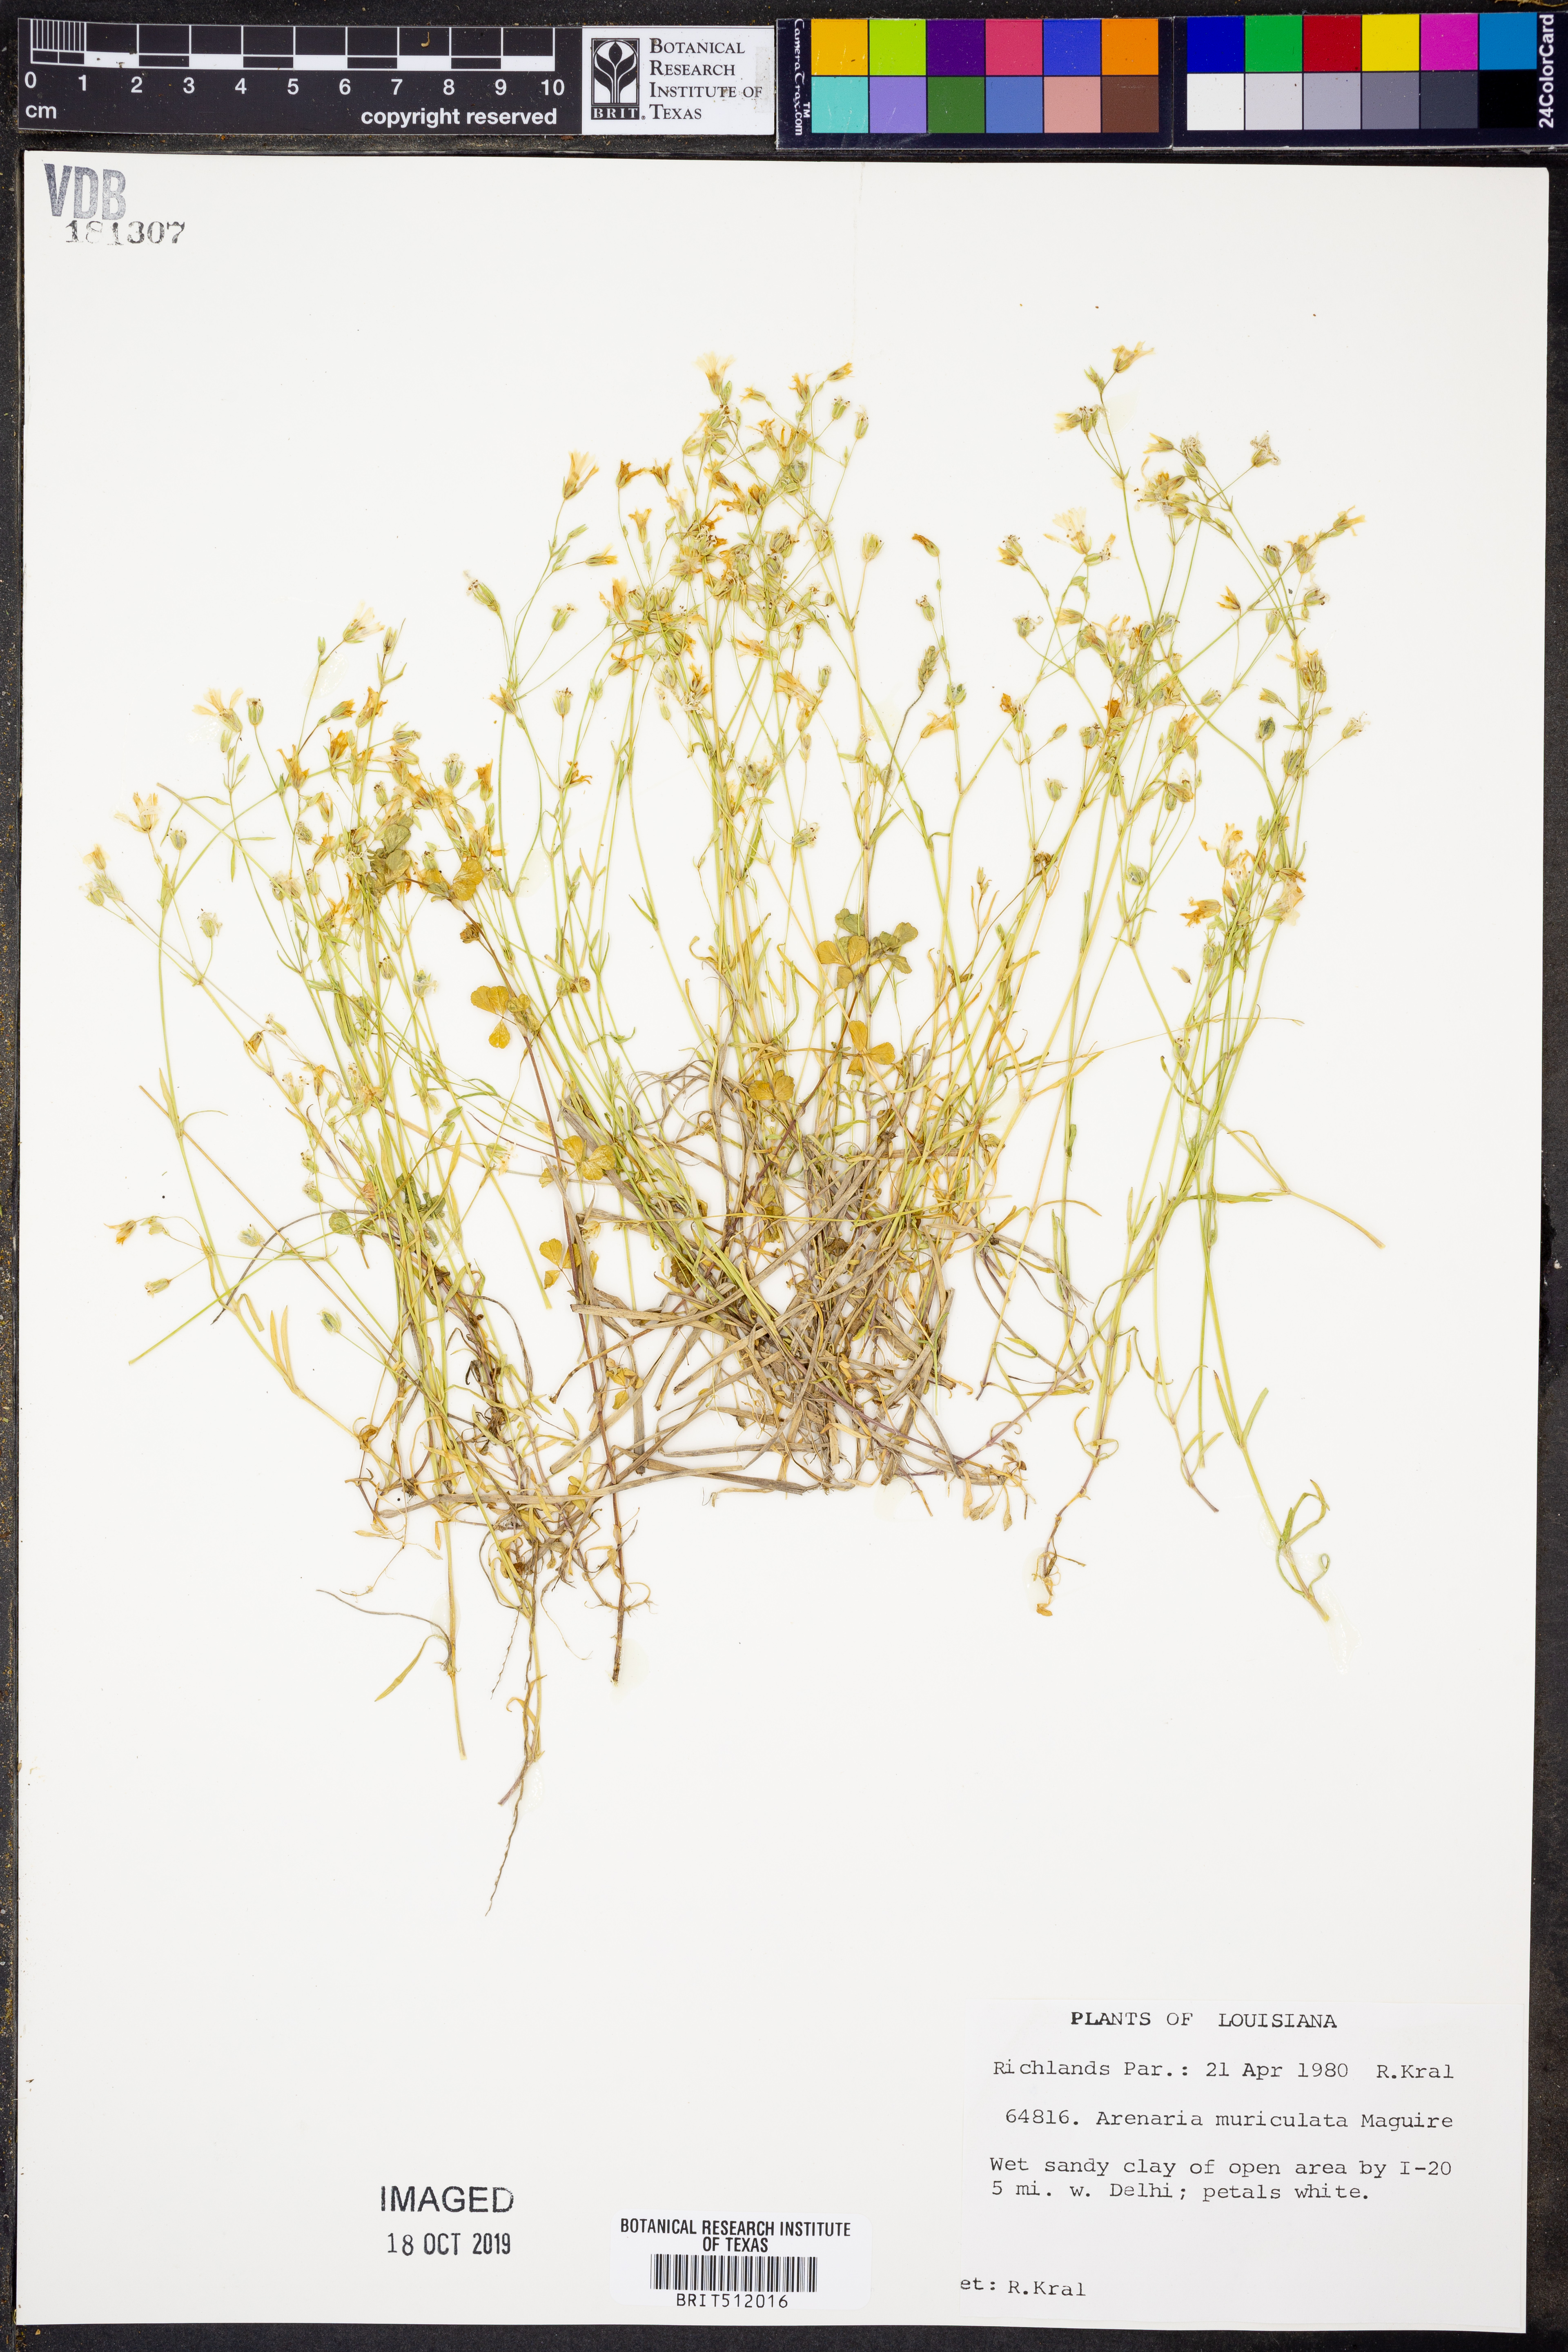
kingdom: Plantae
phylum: Tracheophyta
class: Magnoliopsida
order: Caryophyllales
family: Caryophyllaceae
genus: Mononeuria
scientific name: Mononeuria muscorum
